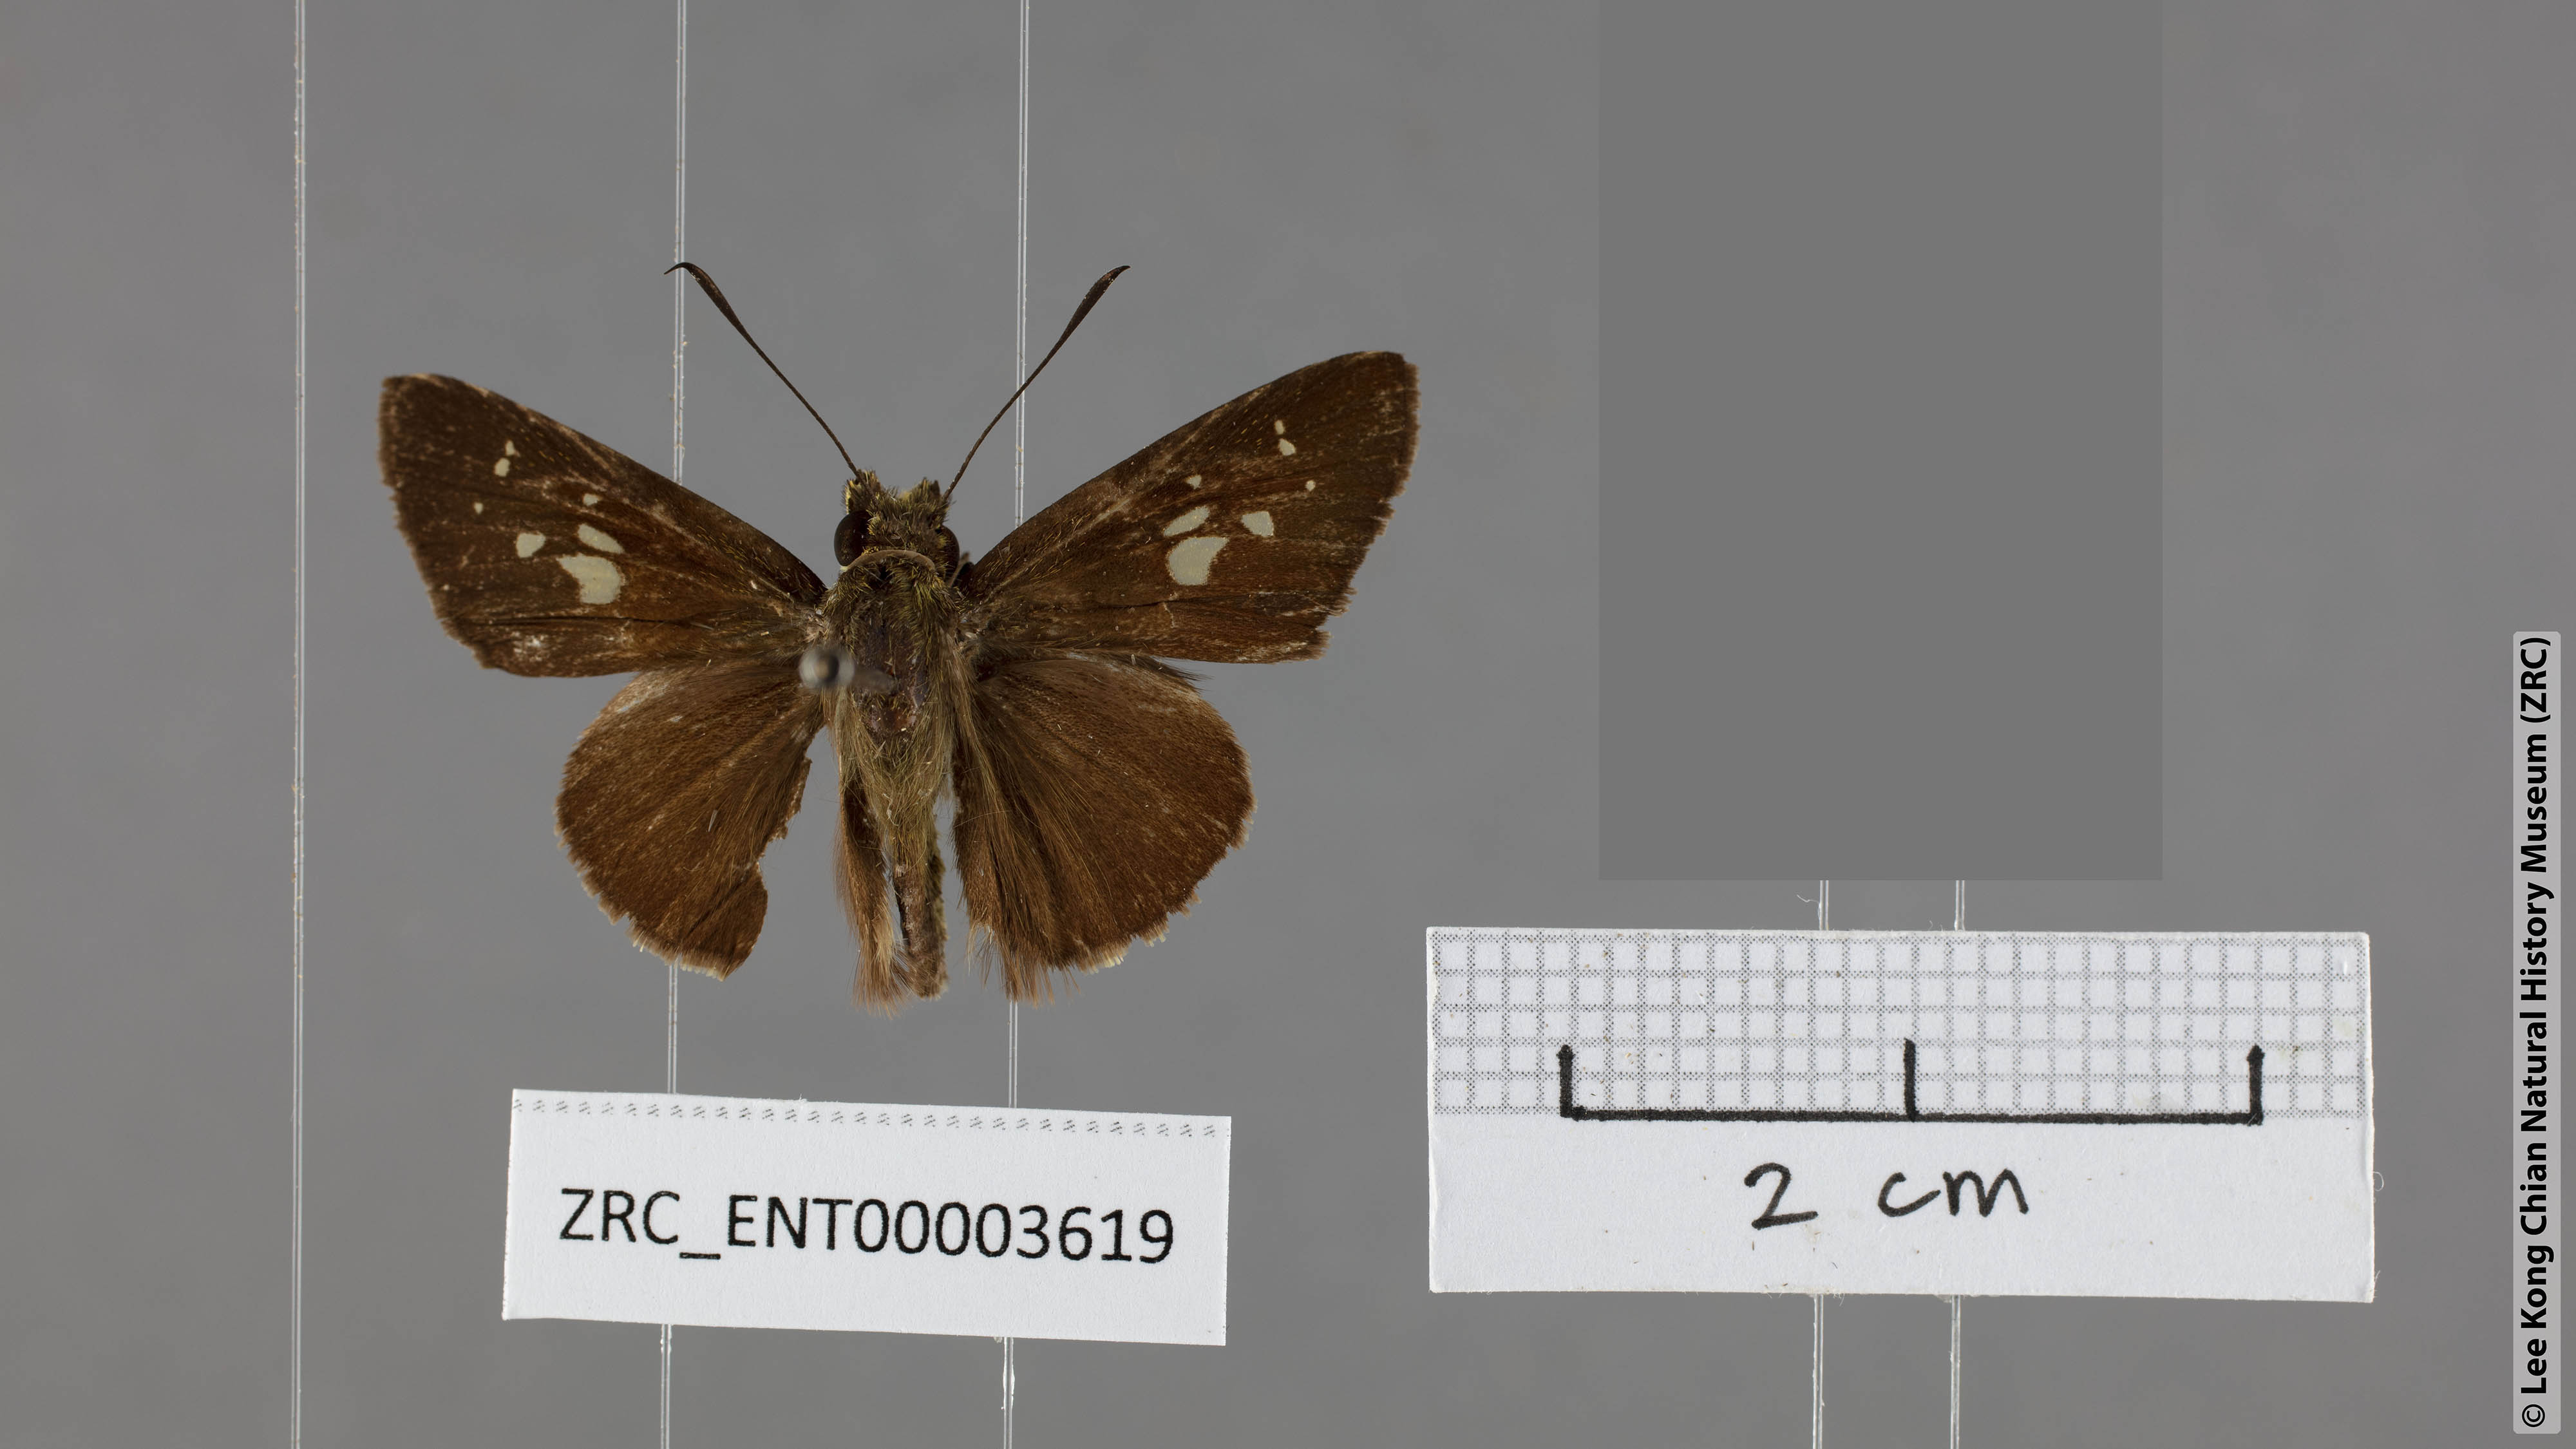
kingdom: Animalia
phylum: Arthropoda
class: Insecta
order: Lepidoptera
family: Hesperiidae
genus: Zographetus
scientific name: Zographetus rama
